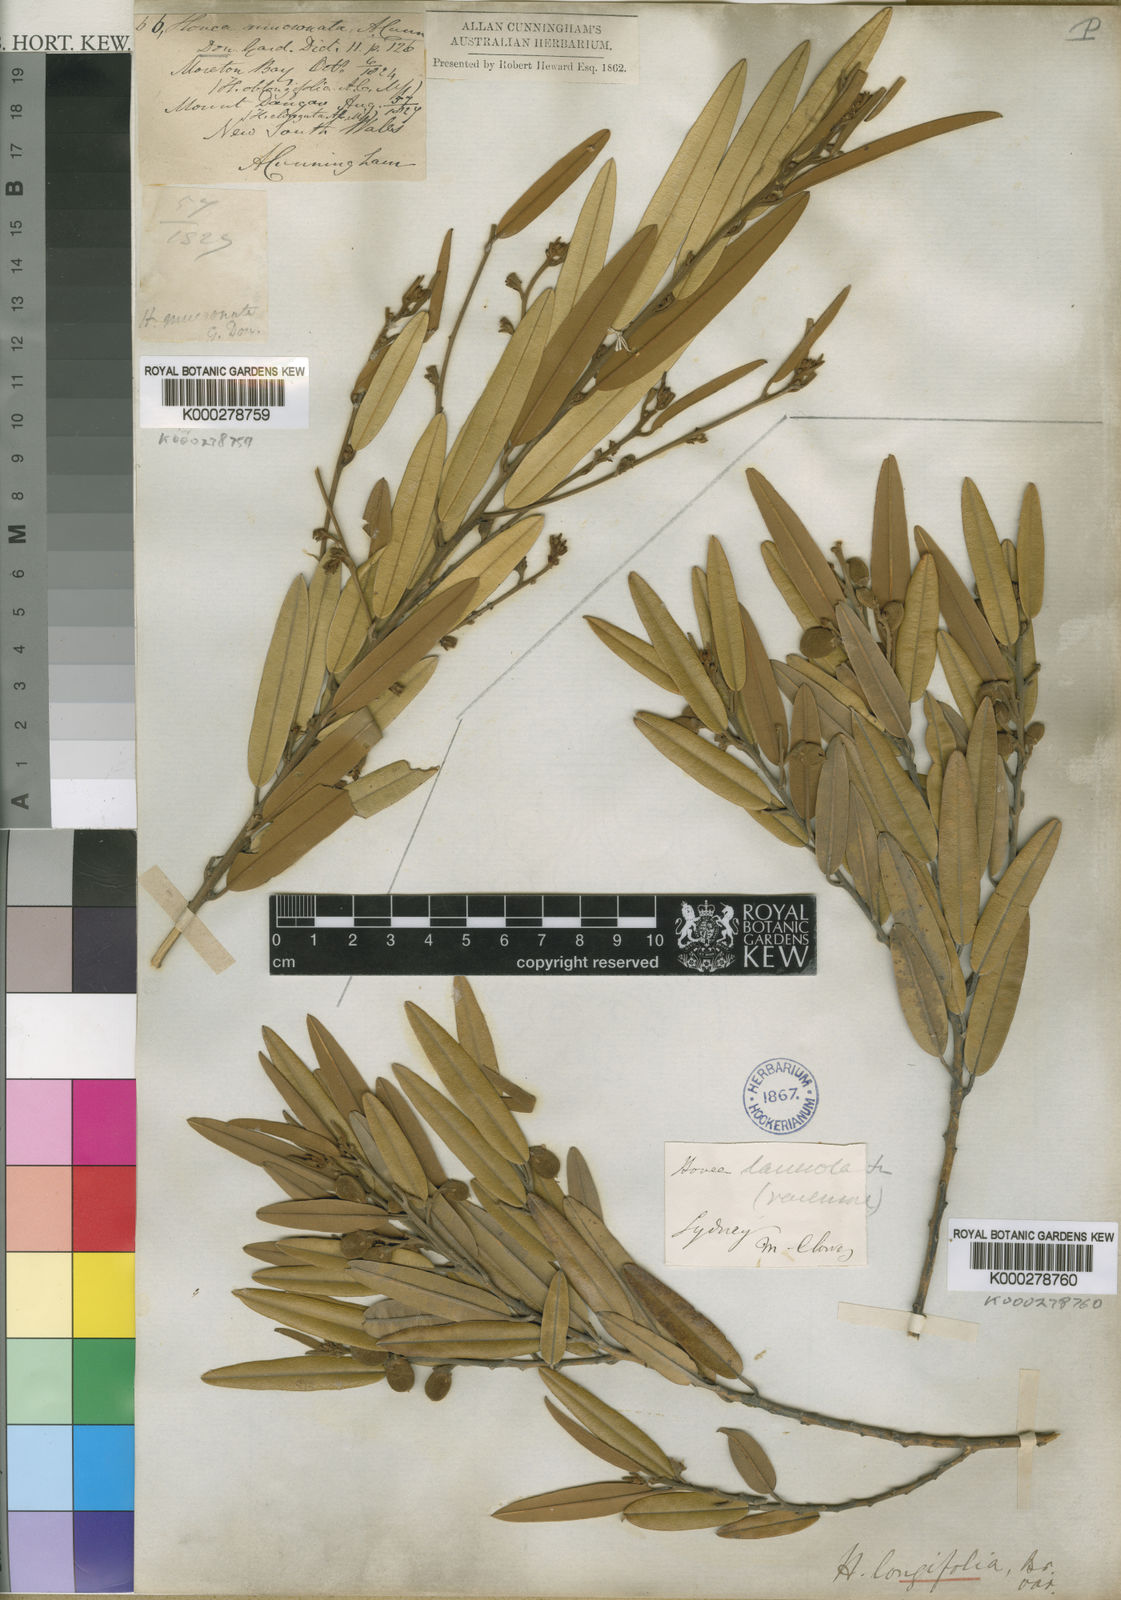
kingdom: Plantae
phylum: Tracheophyta
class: Magnoliopsida
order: Fabales
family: Fabaceae
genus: Hovea
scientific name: Hovea lanceolata
